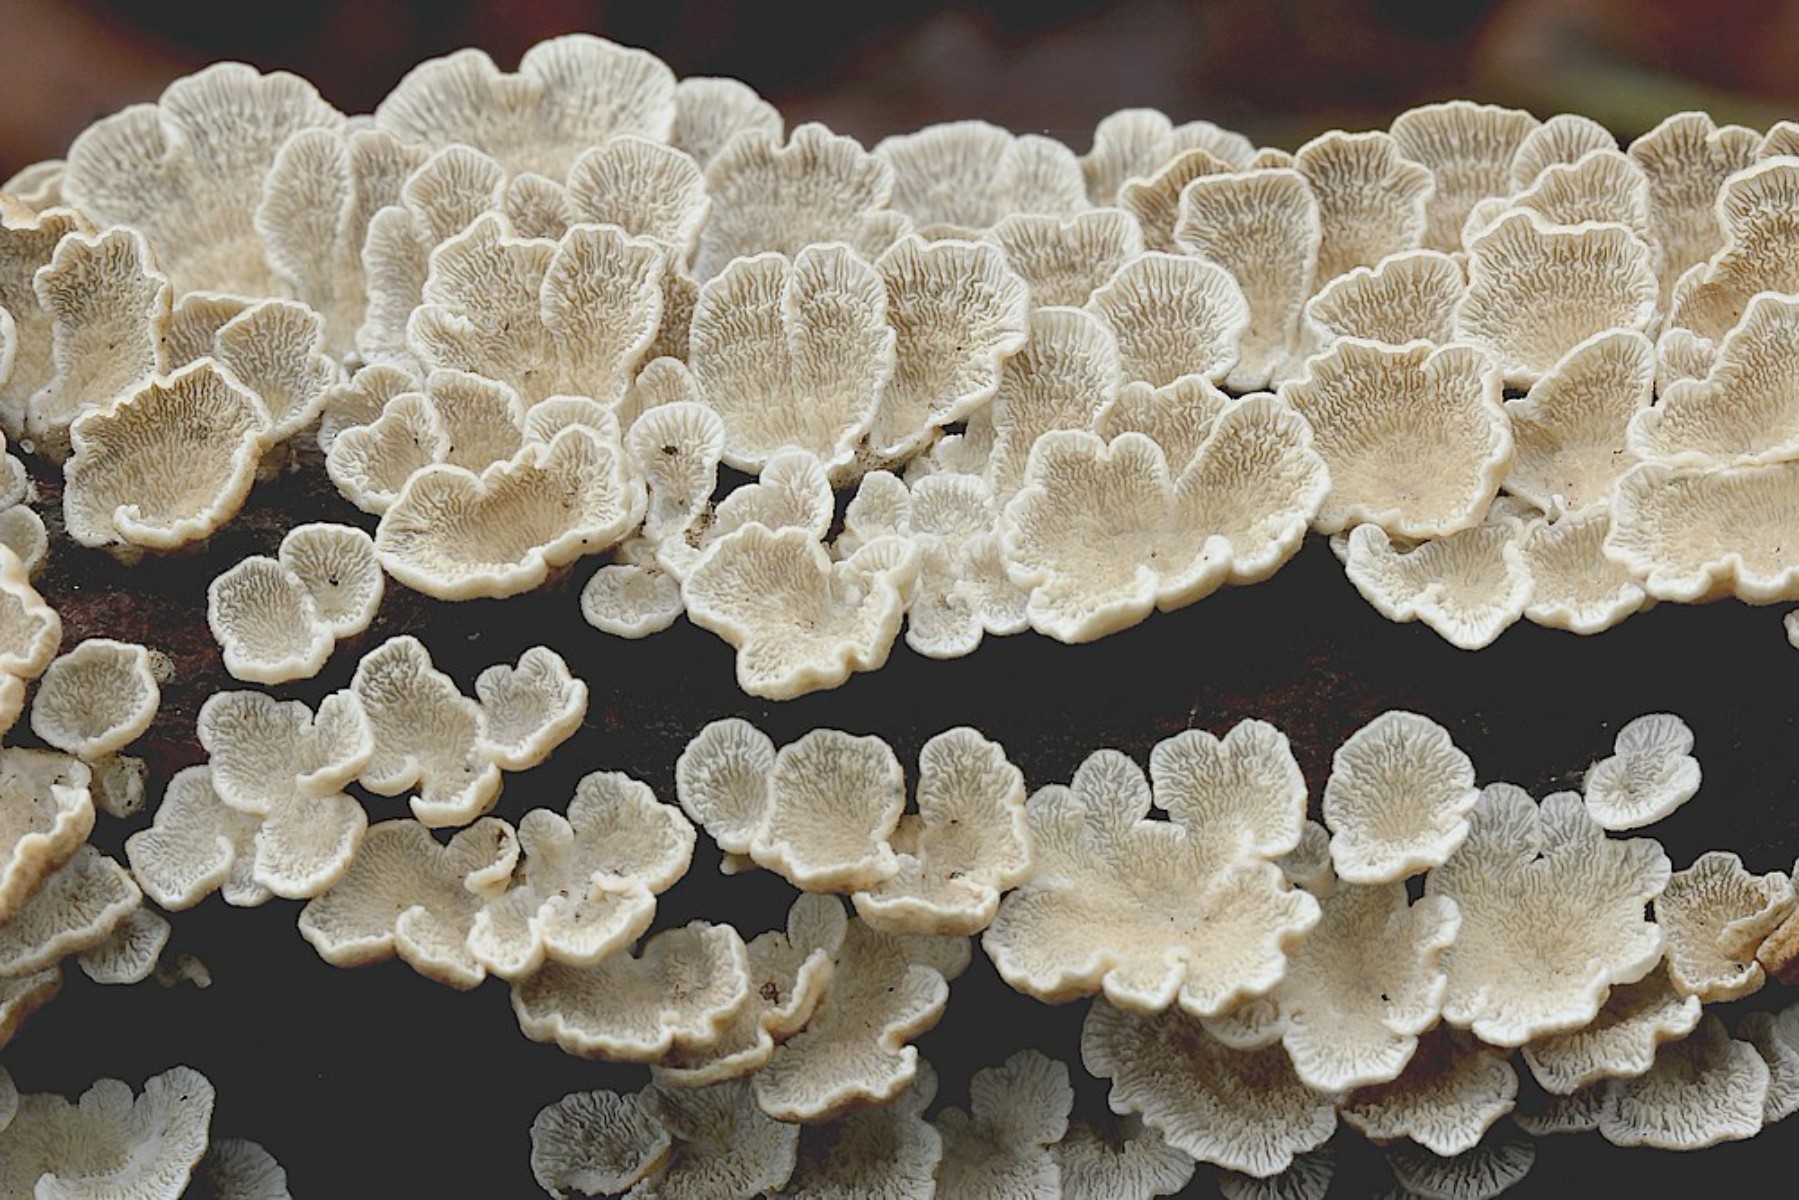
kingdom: Fungi
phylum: Basidiomycota
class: Agaricomycetes
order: Amylocorticiales
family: Amylocorticiaceae
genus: Plicaturopsis
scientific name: Plicaturopsis crispa
